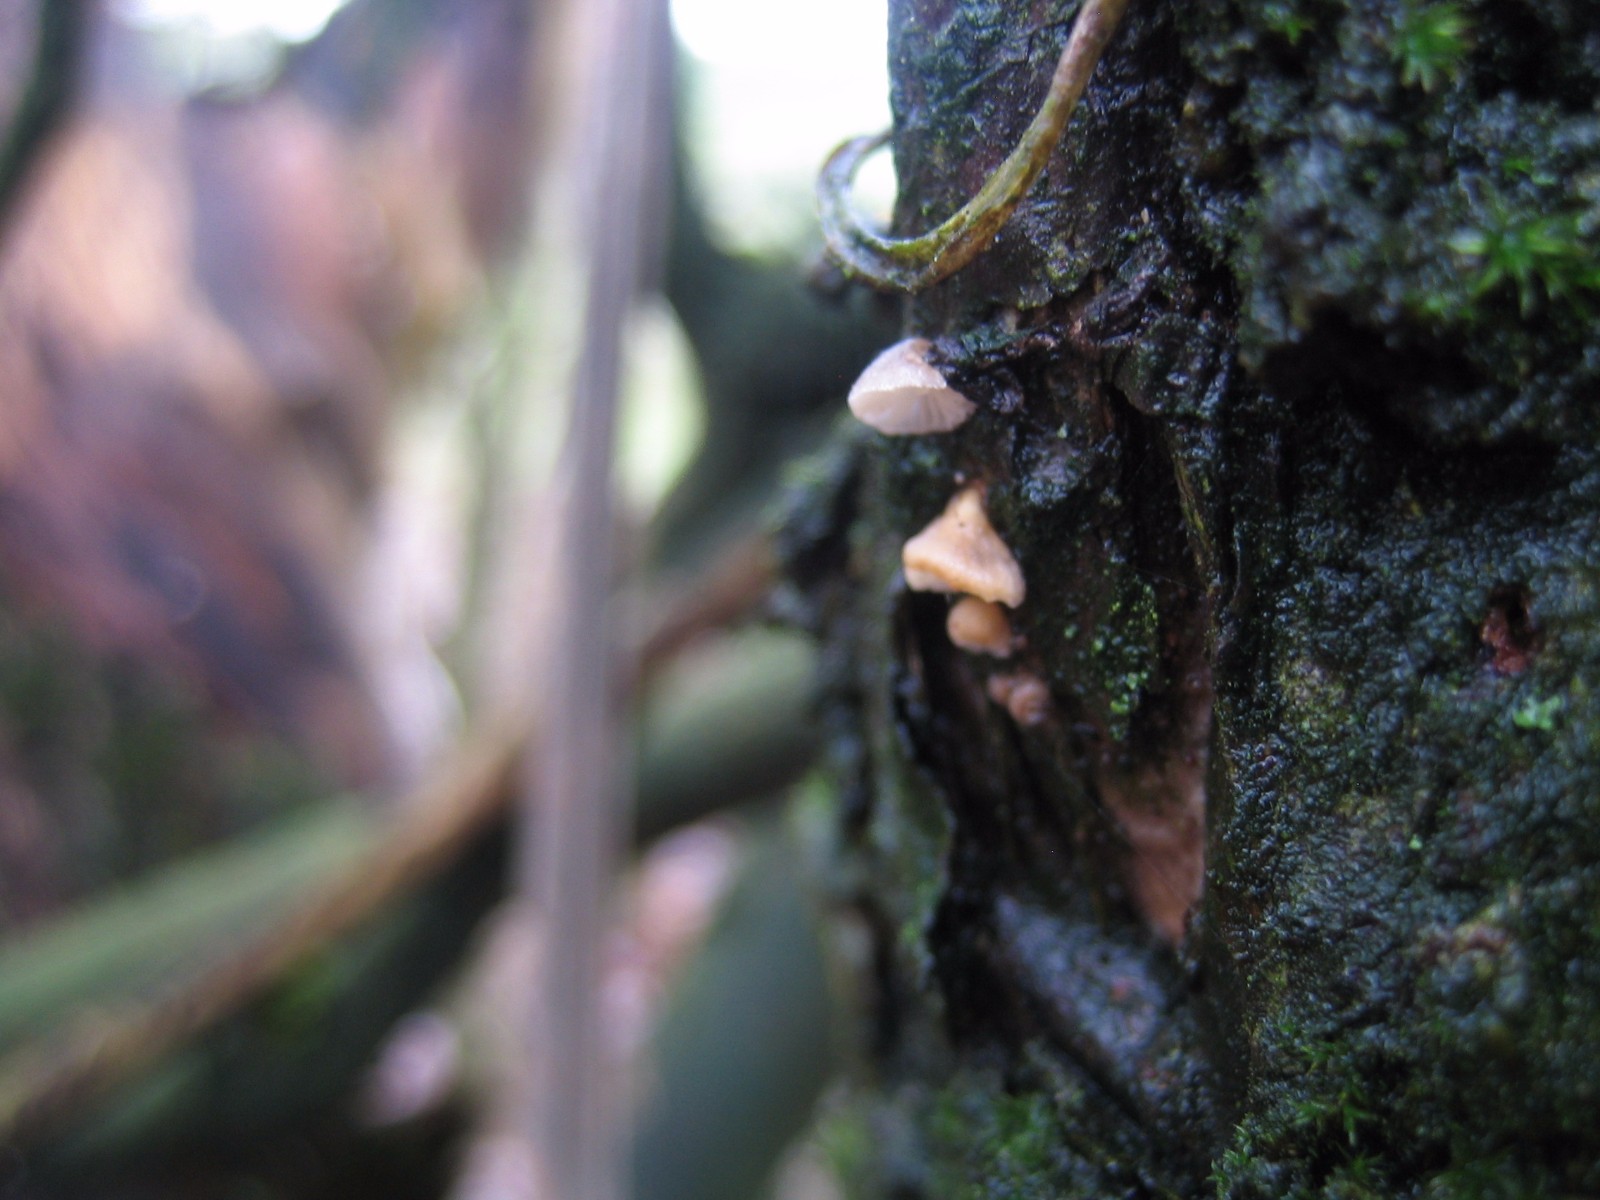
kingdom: Fungi
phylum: Basidiomycota
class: Agaricomycetes
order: Agaricales
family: Pleurotaceae
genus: Hohenbuehelia
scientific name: Hohenbuehelia
